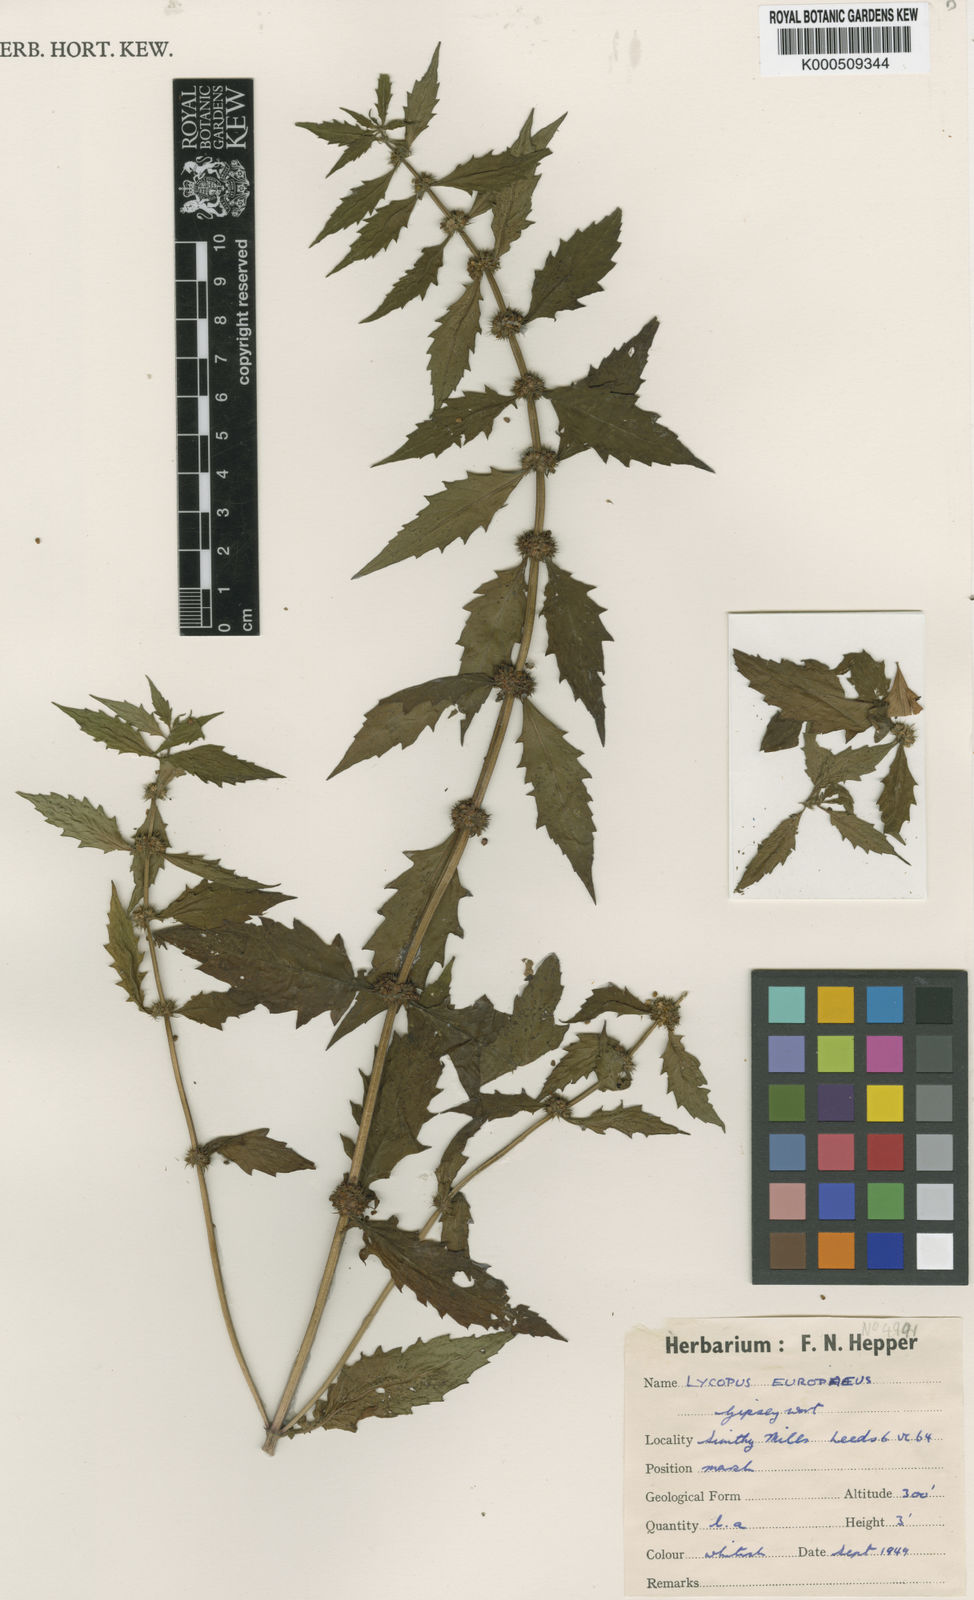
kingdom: Plantae
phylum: Tracheophyta
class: Magnoliopsida
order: Lamiales
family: Lamiaceae
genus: Lycopus
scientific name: Lycopus europaeus
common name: European bugleweed
